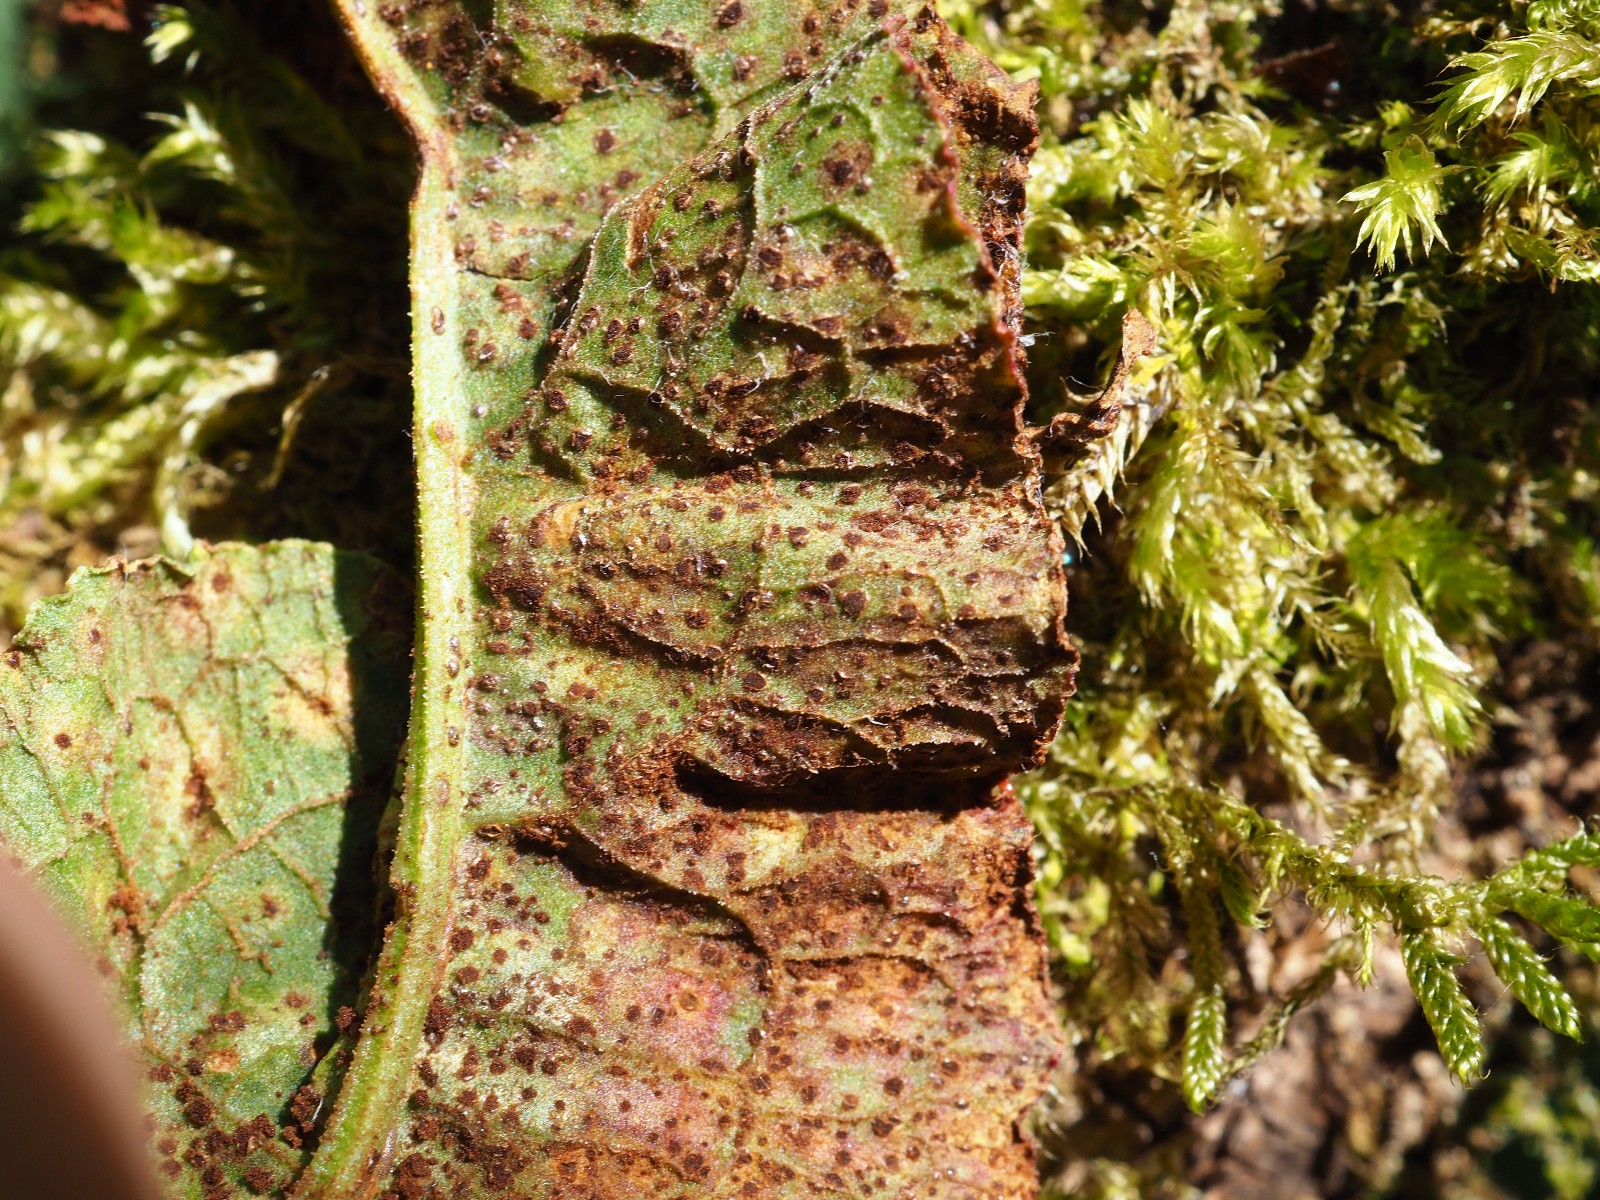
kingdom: Fungi
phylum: Basidiomycota
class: Pucciniomycetes
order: Pucciniales
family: Pucciniaceae
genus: Uromyces
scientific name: Uromyces rumicis
